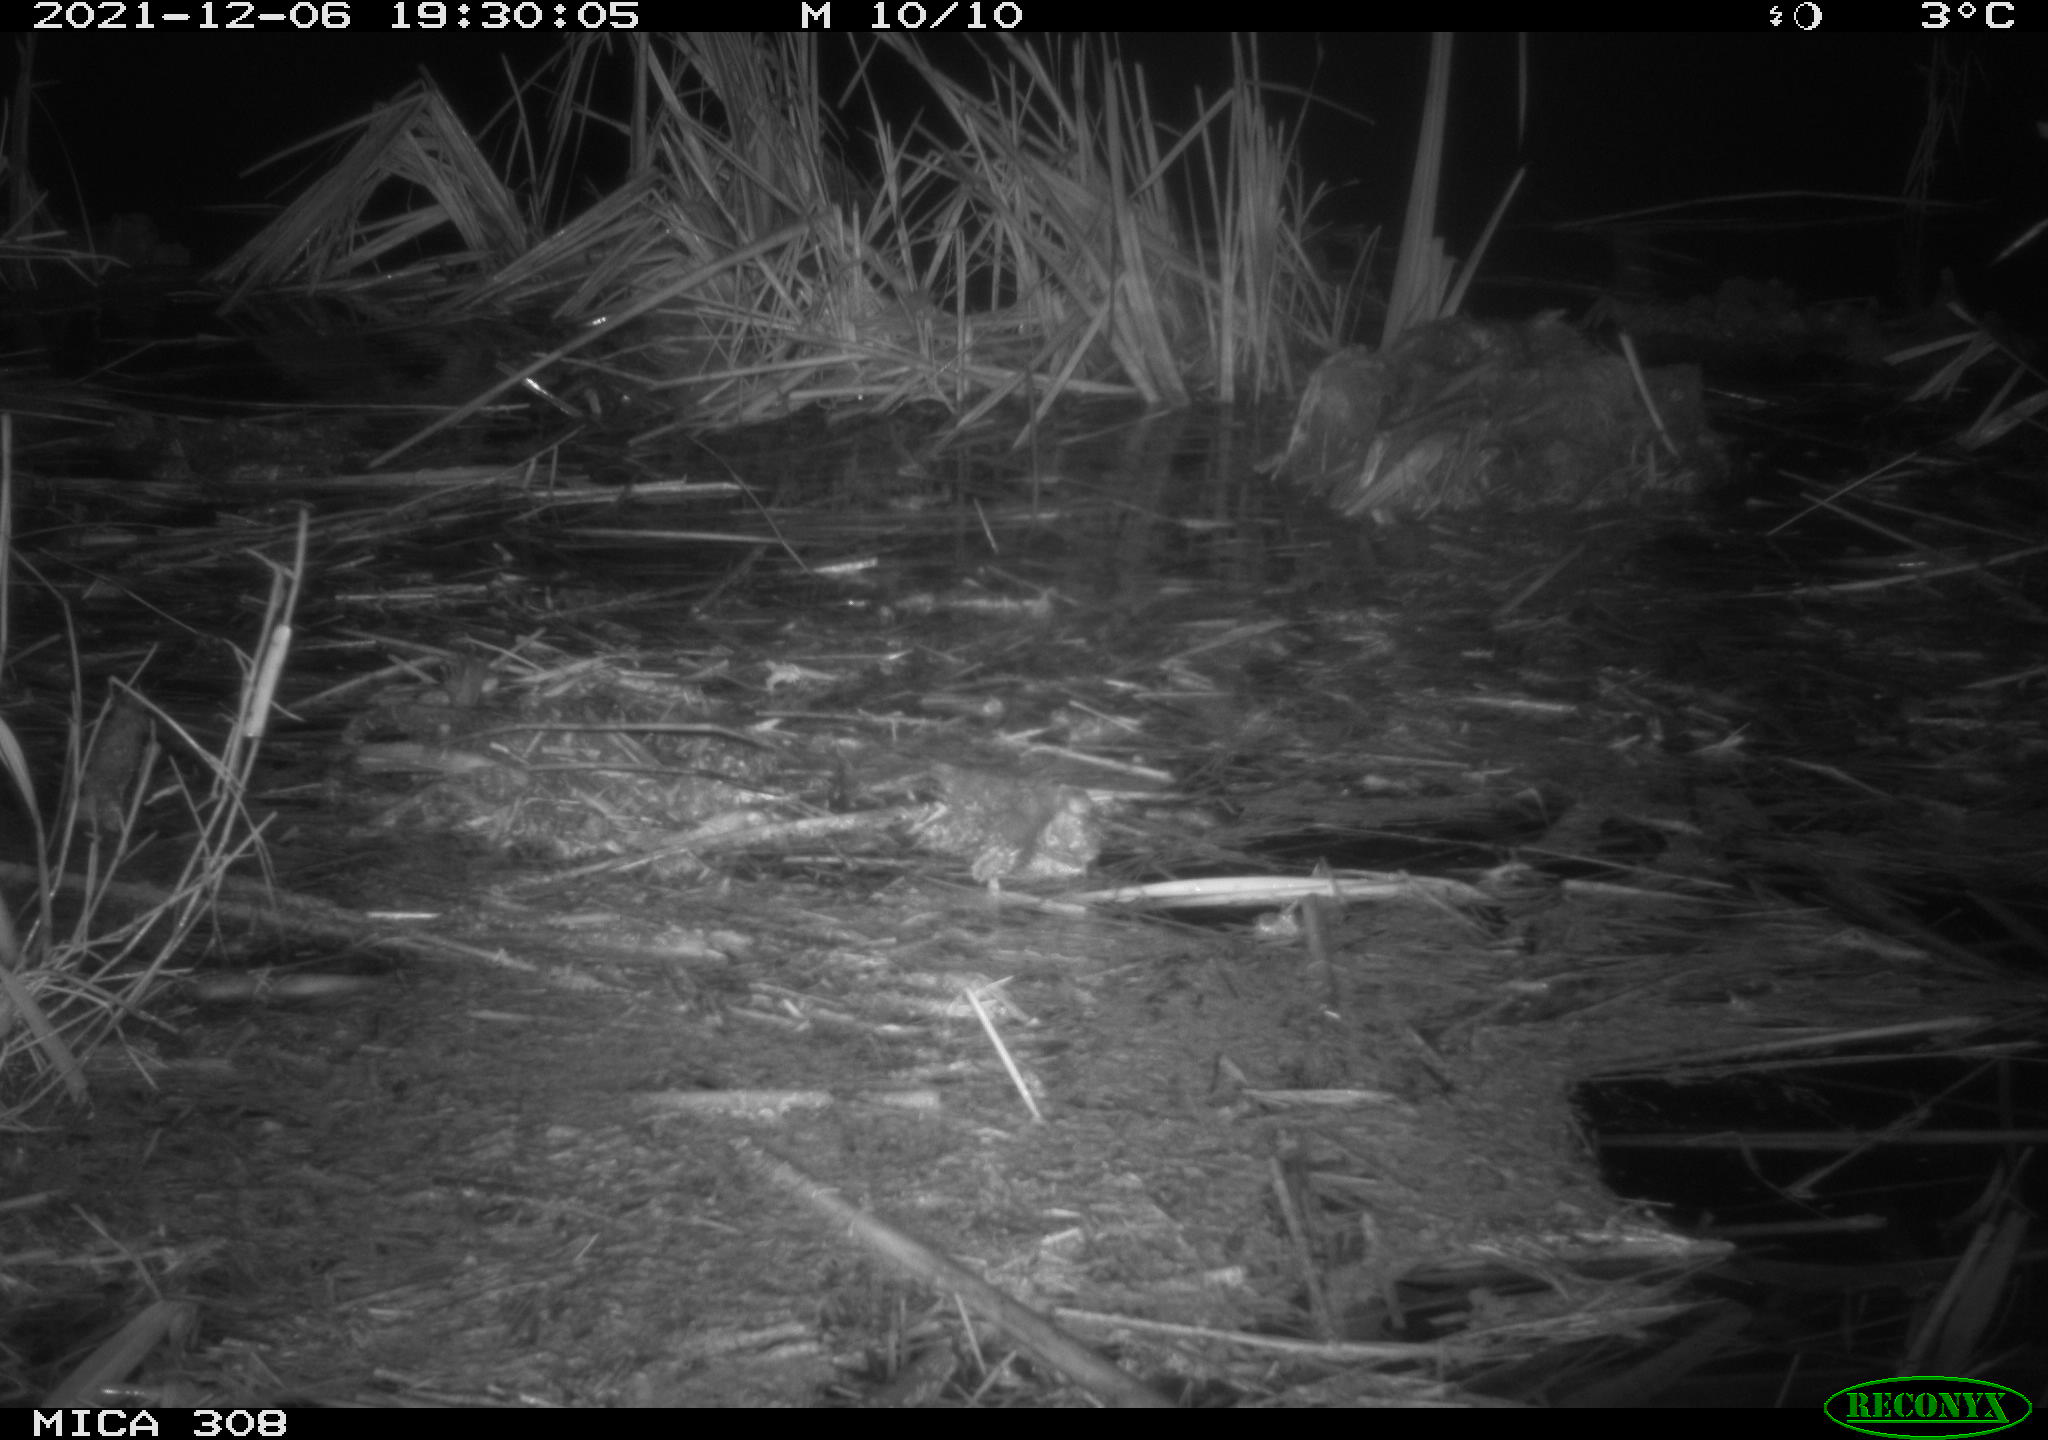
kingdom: Animalia
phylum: Chordata
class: Mammalia
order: Rodentia
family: Muridae
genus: Rattus
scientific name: Rattus norvegicus
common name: Brown rat
